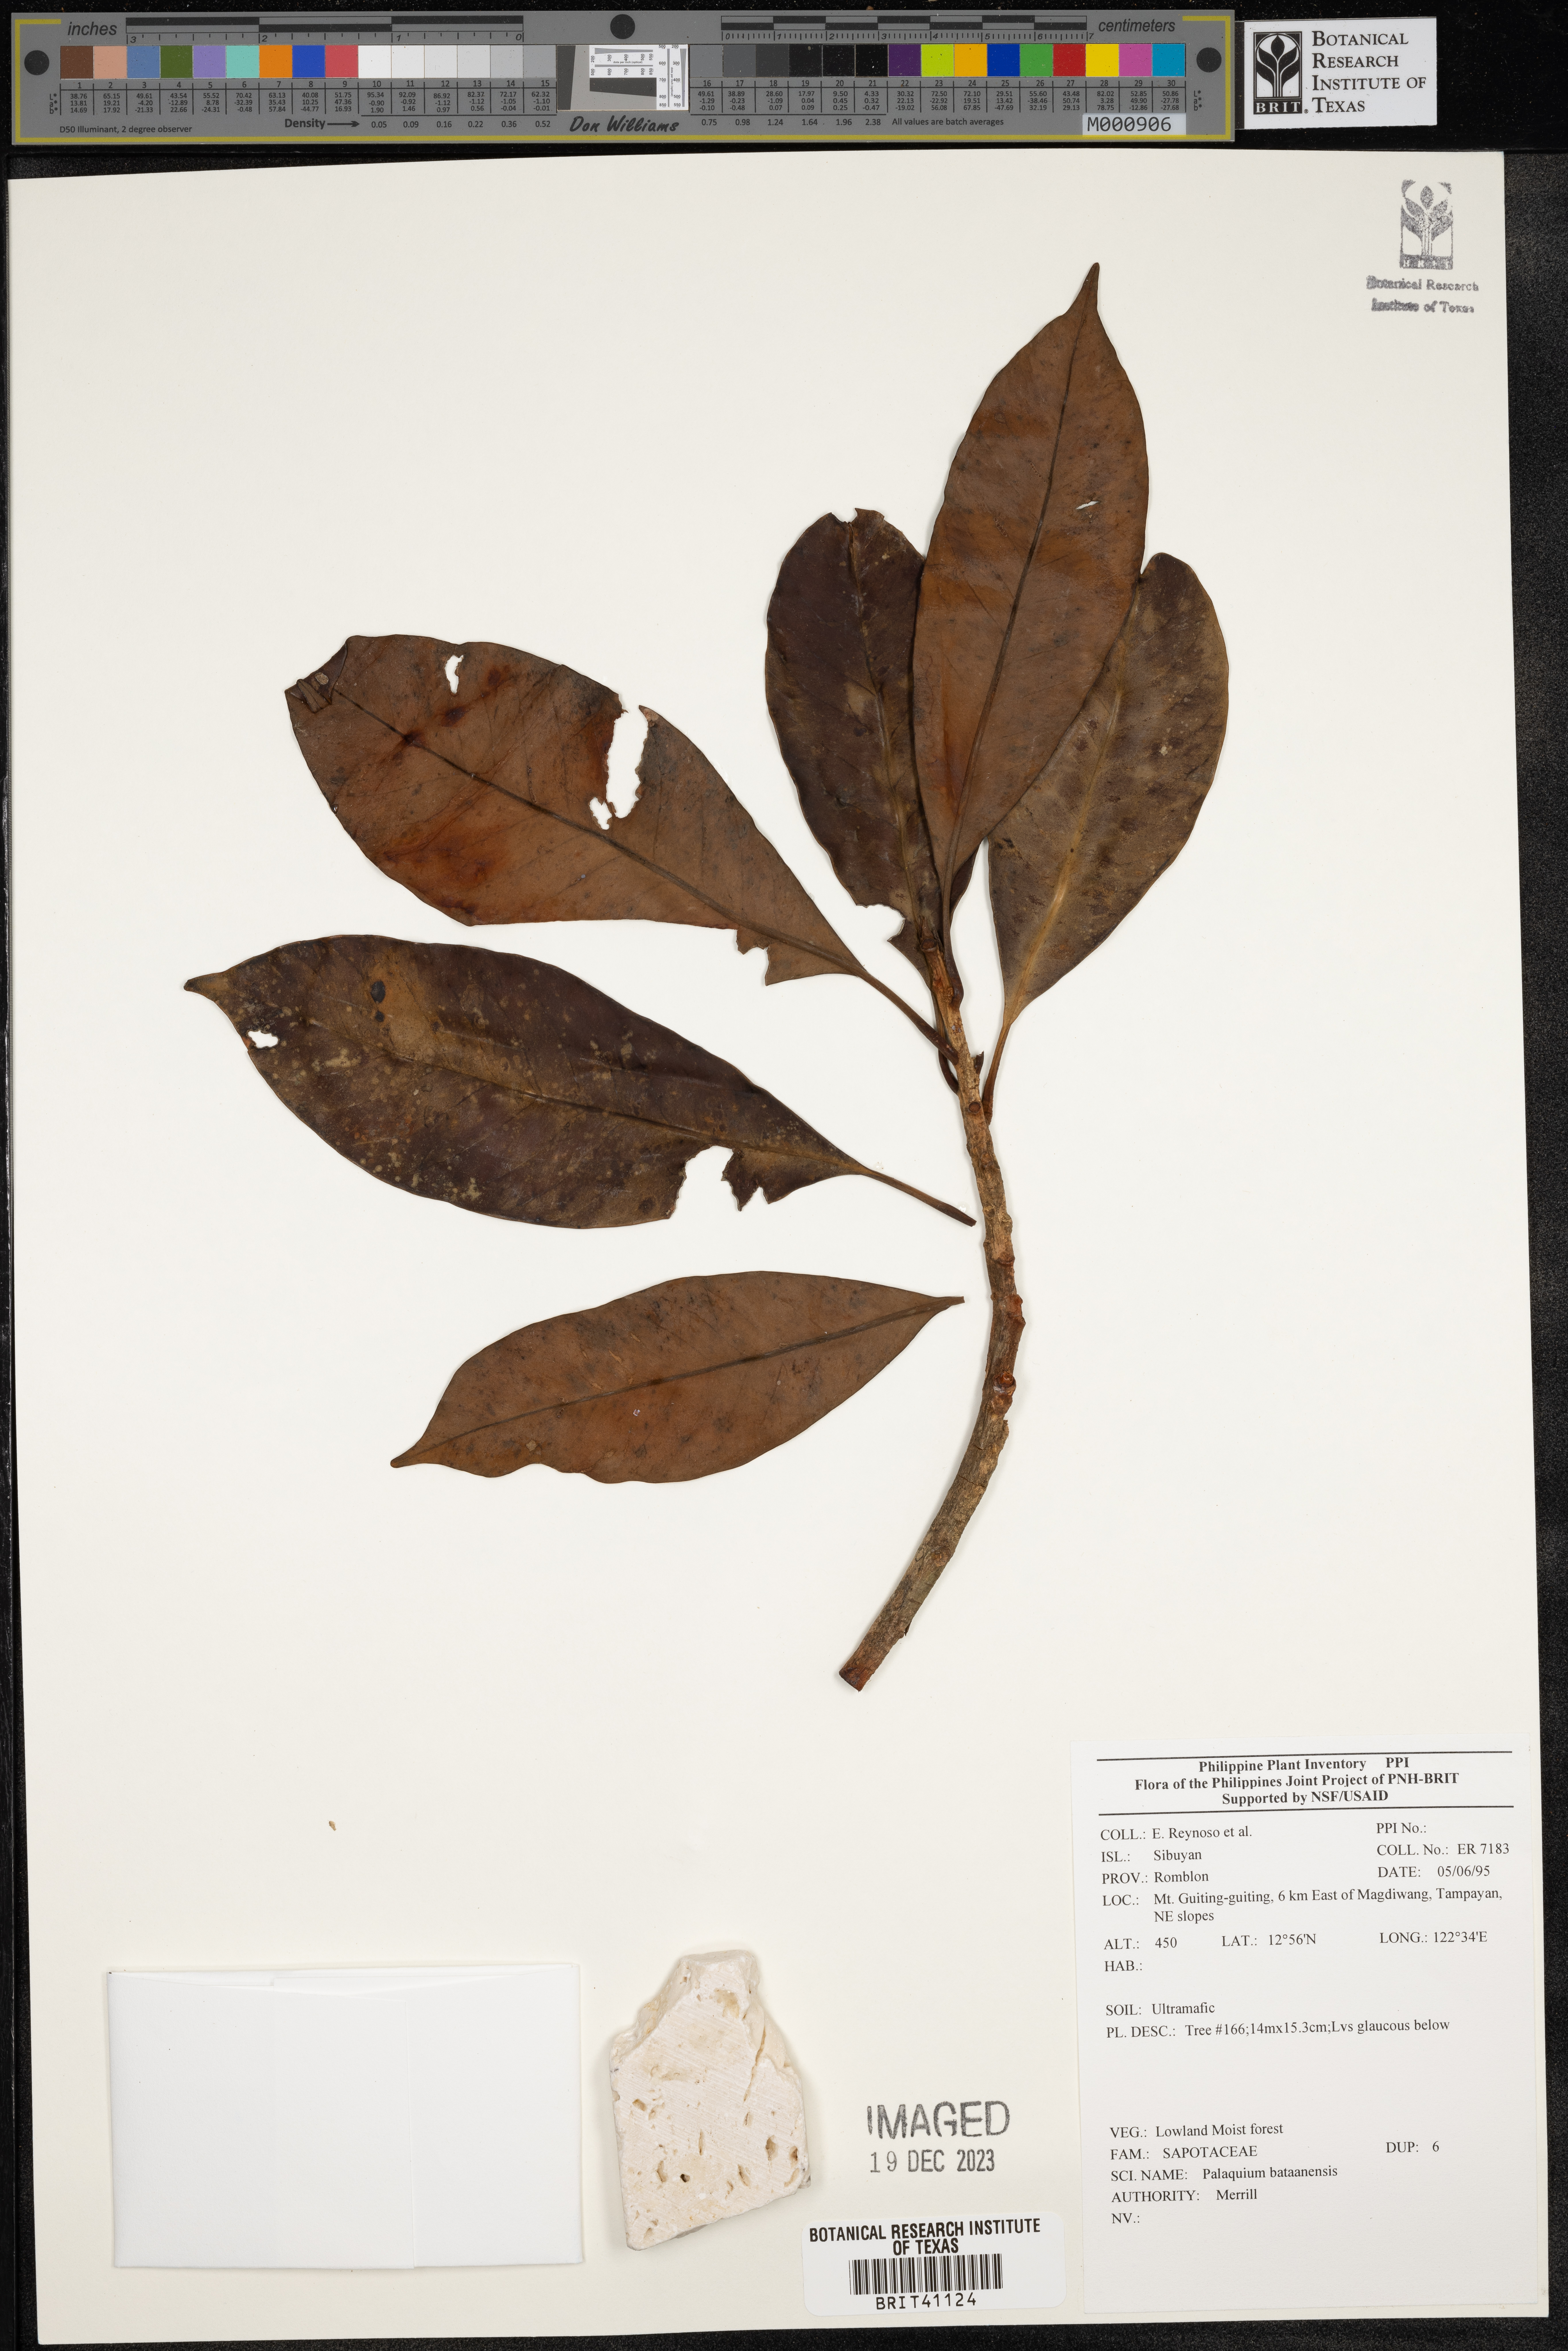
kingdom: Plantae
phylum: Tracheophyta
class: Magnoliopsida
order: Ericales
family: Sapotaceae
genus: Palaquium
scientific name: Palaquium bataanense
